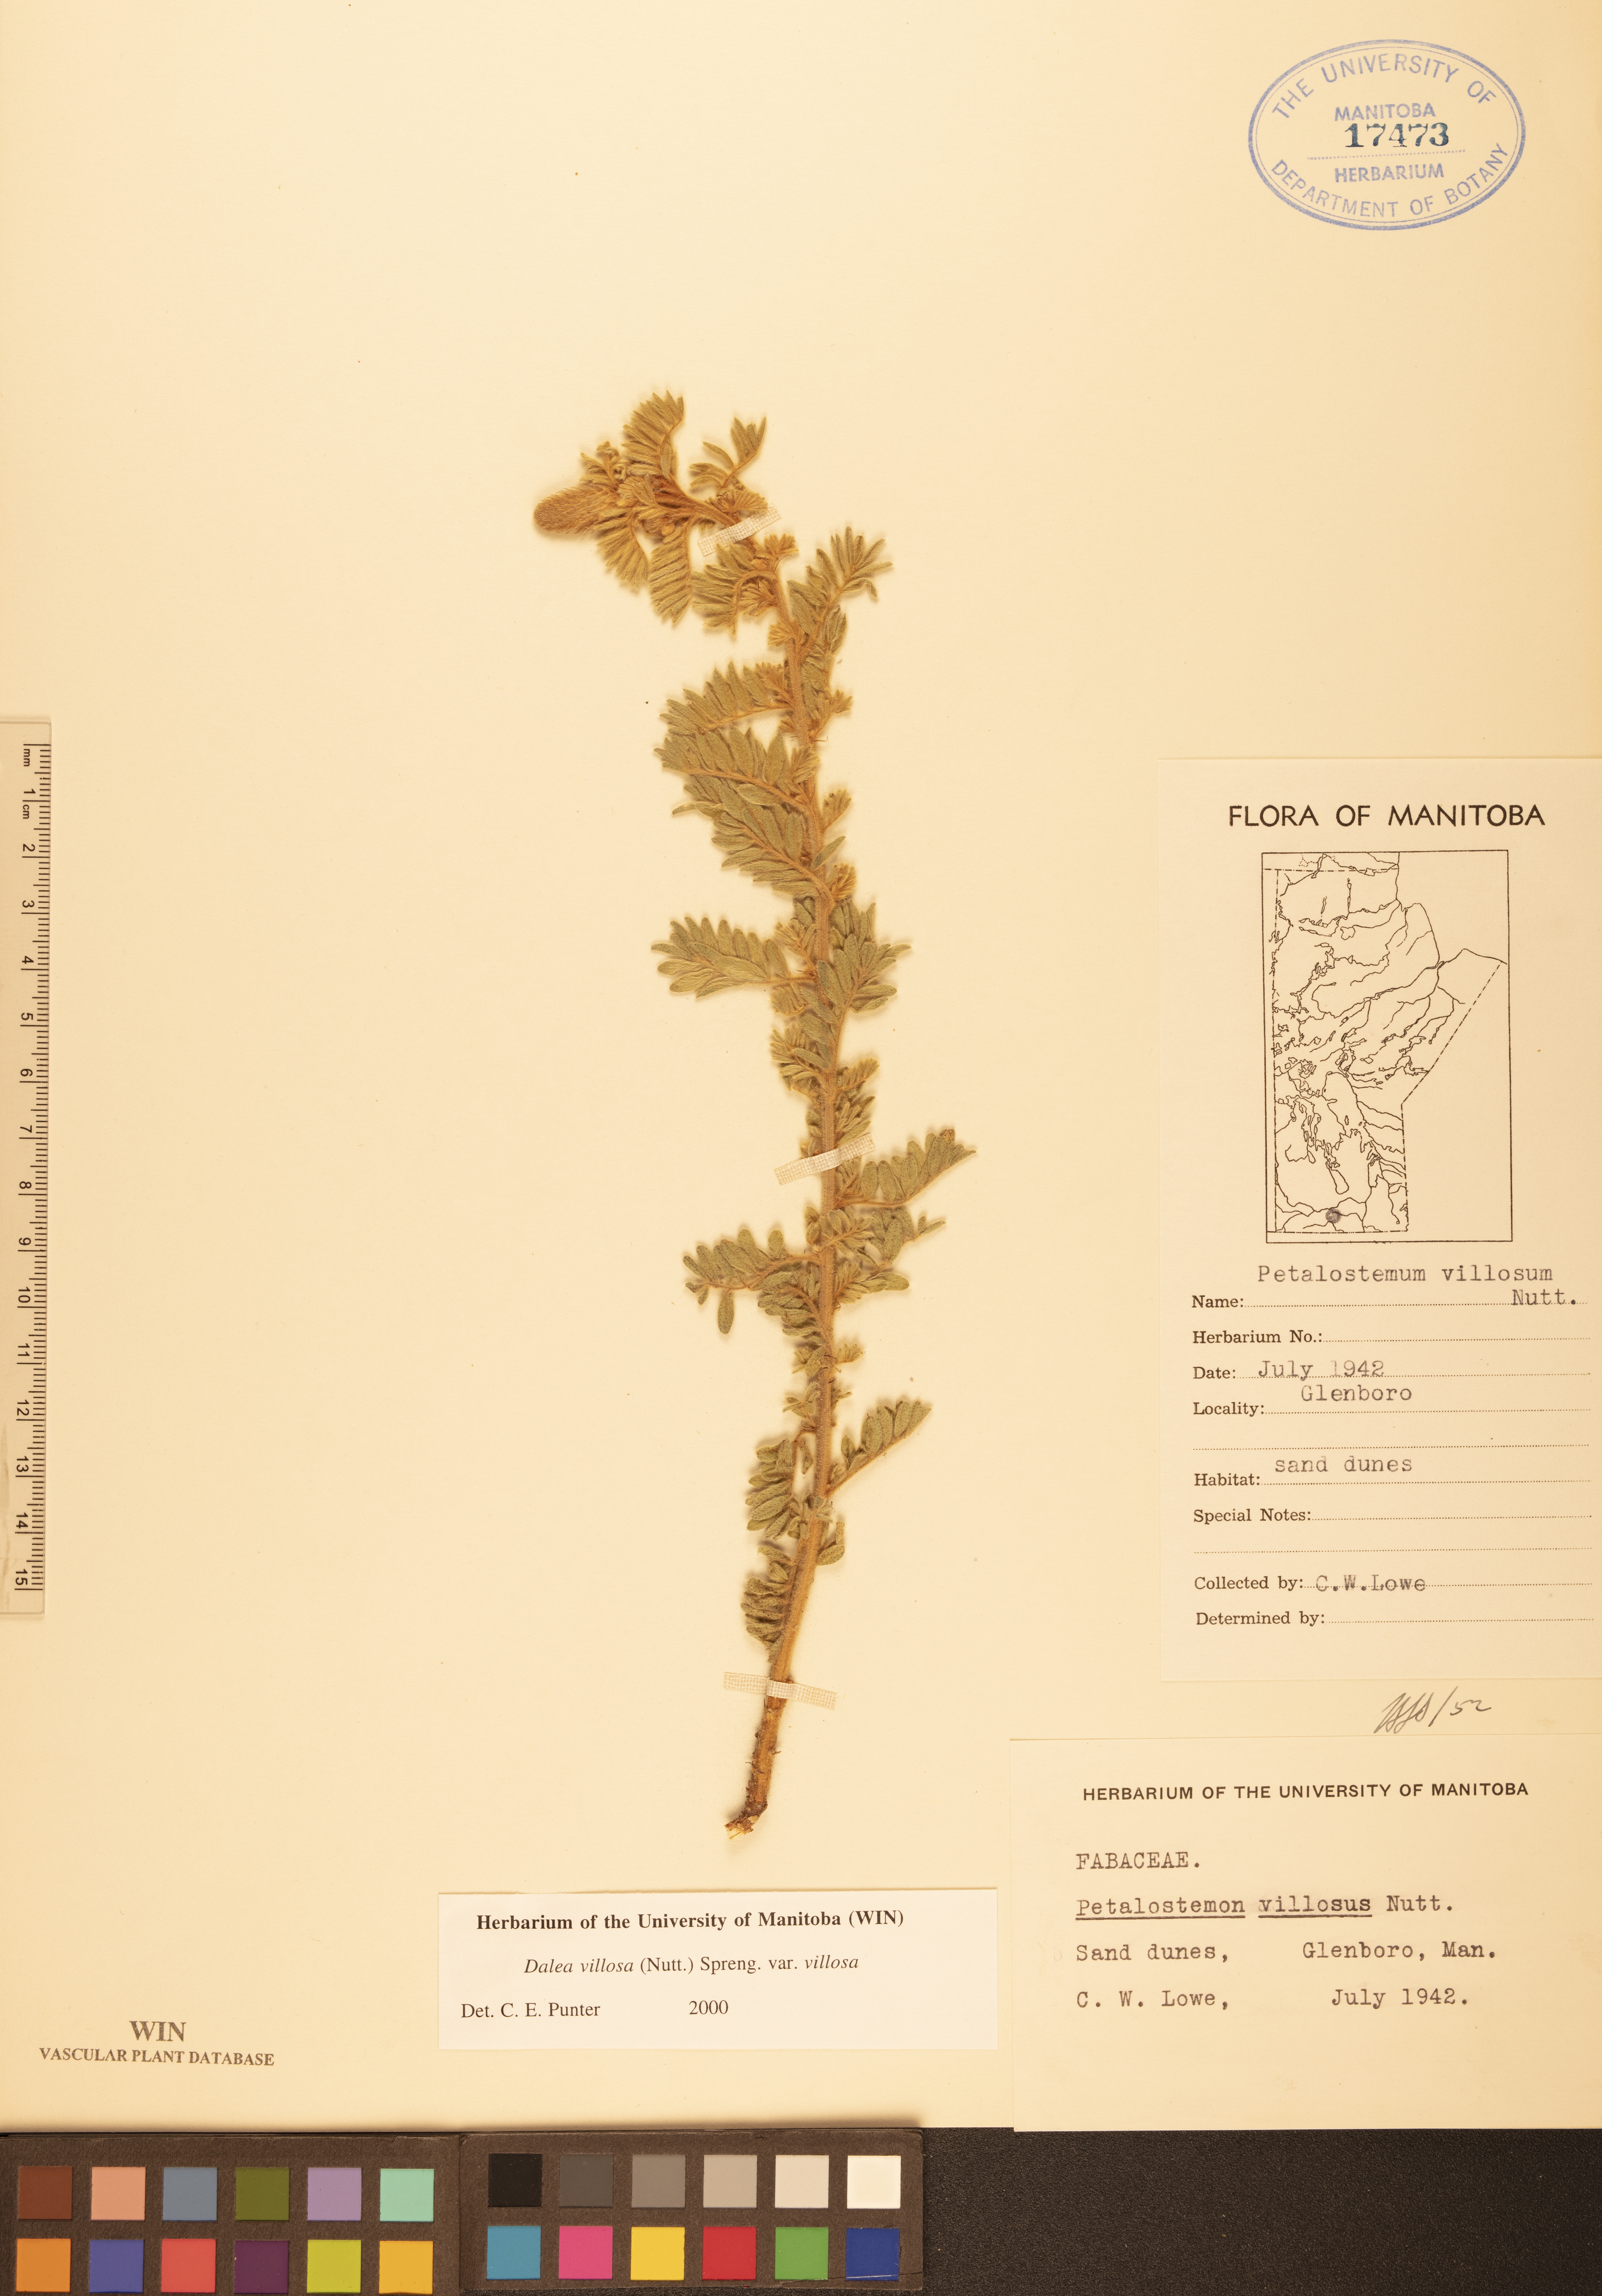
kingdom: Plantae
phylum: Tracheophyta
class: Magnoliopsida
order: Fabales
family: Fabaceae
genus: Dalea
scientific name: Dalea villosa
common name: Silky prairie-clover
